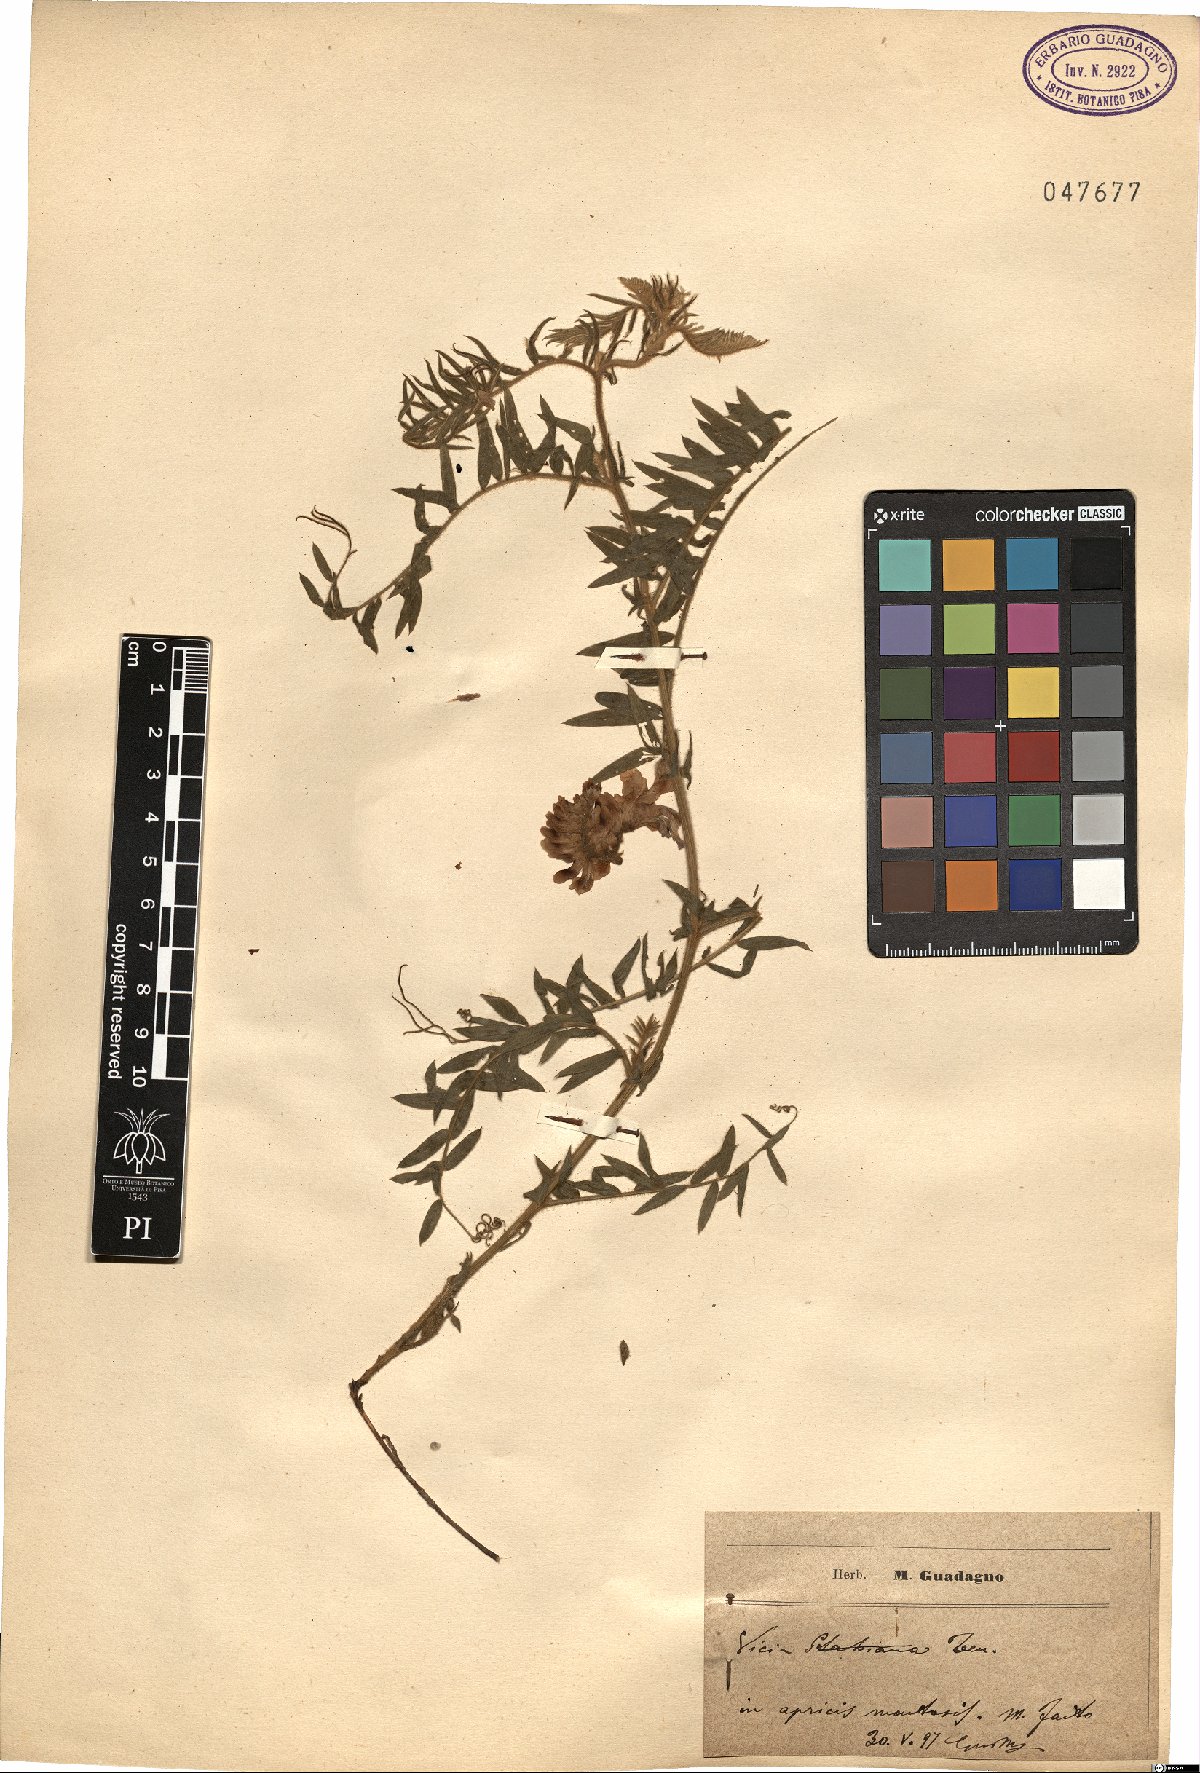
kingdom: Plantae
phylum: Tracheophyta
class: Magnoliopsida
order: Fabales
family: Fabaceae
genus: Vicia
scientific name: Vicia incana
